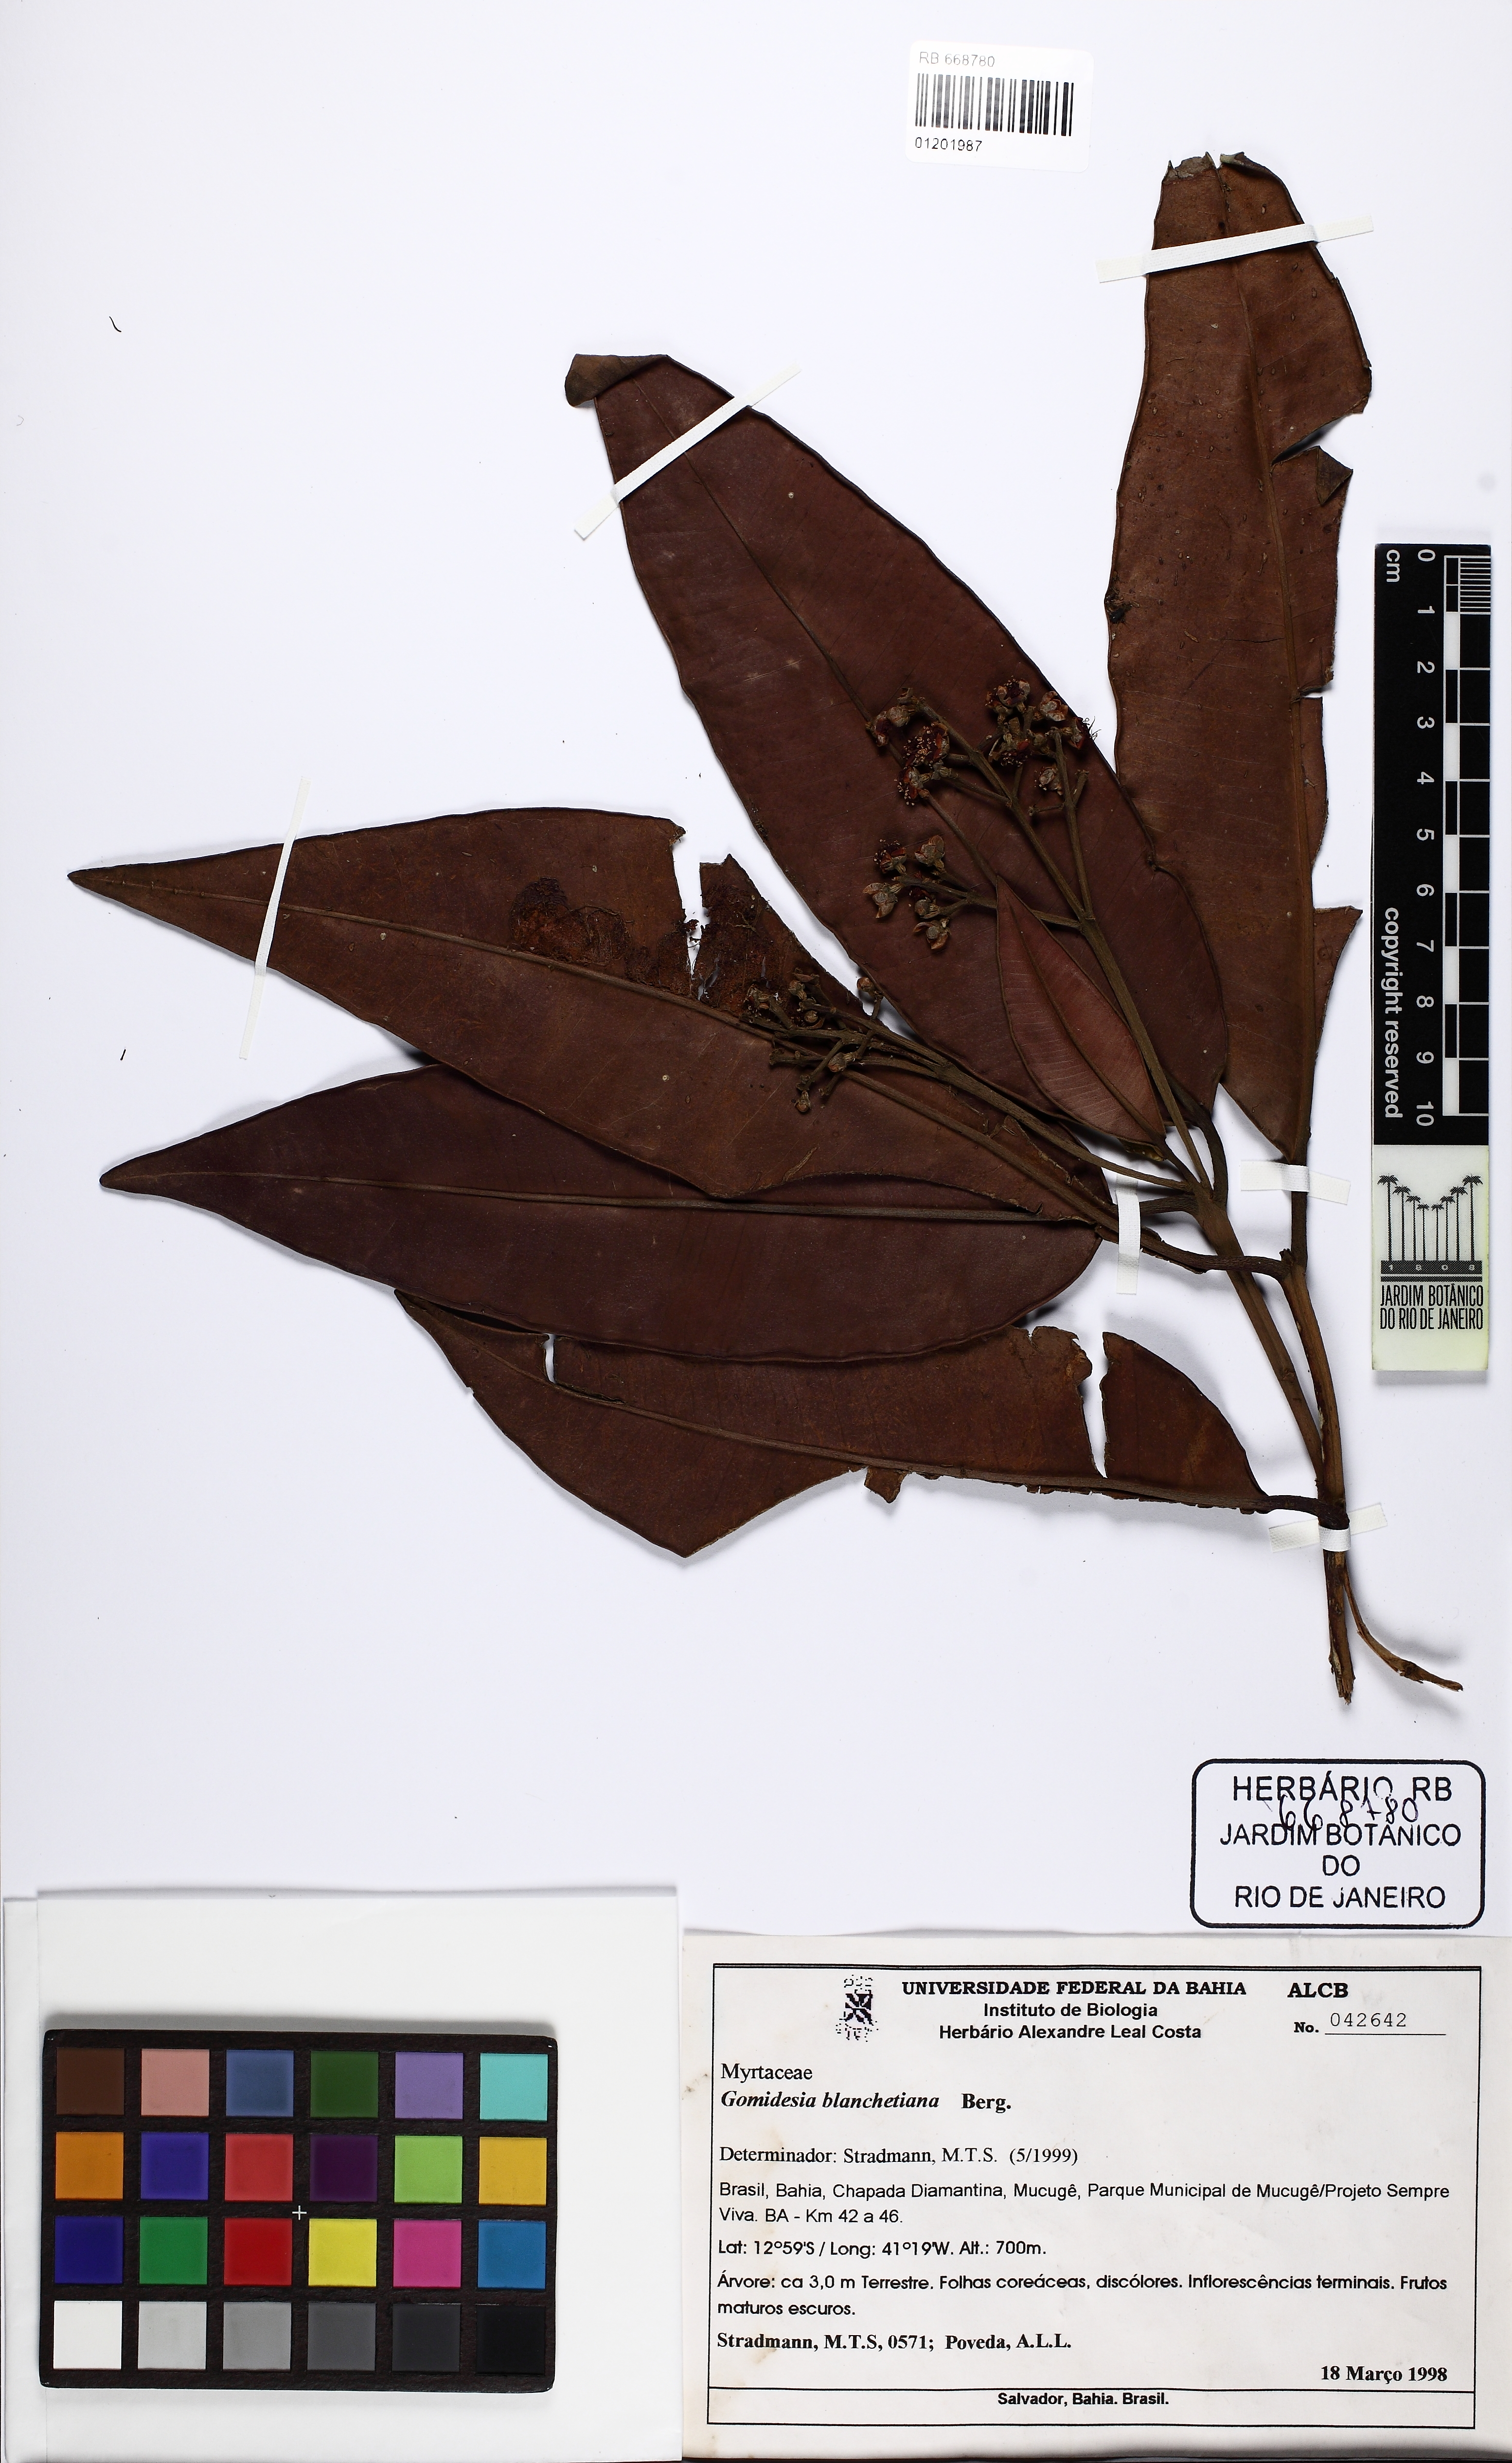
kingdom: Plantae
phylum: Tracheophyta
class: Magnoliopsida
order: Myrtales
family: Myrtaceae
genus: Myrcia
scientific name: Myrcia lughadhae
